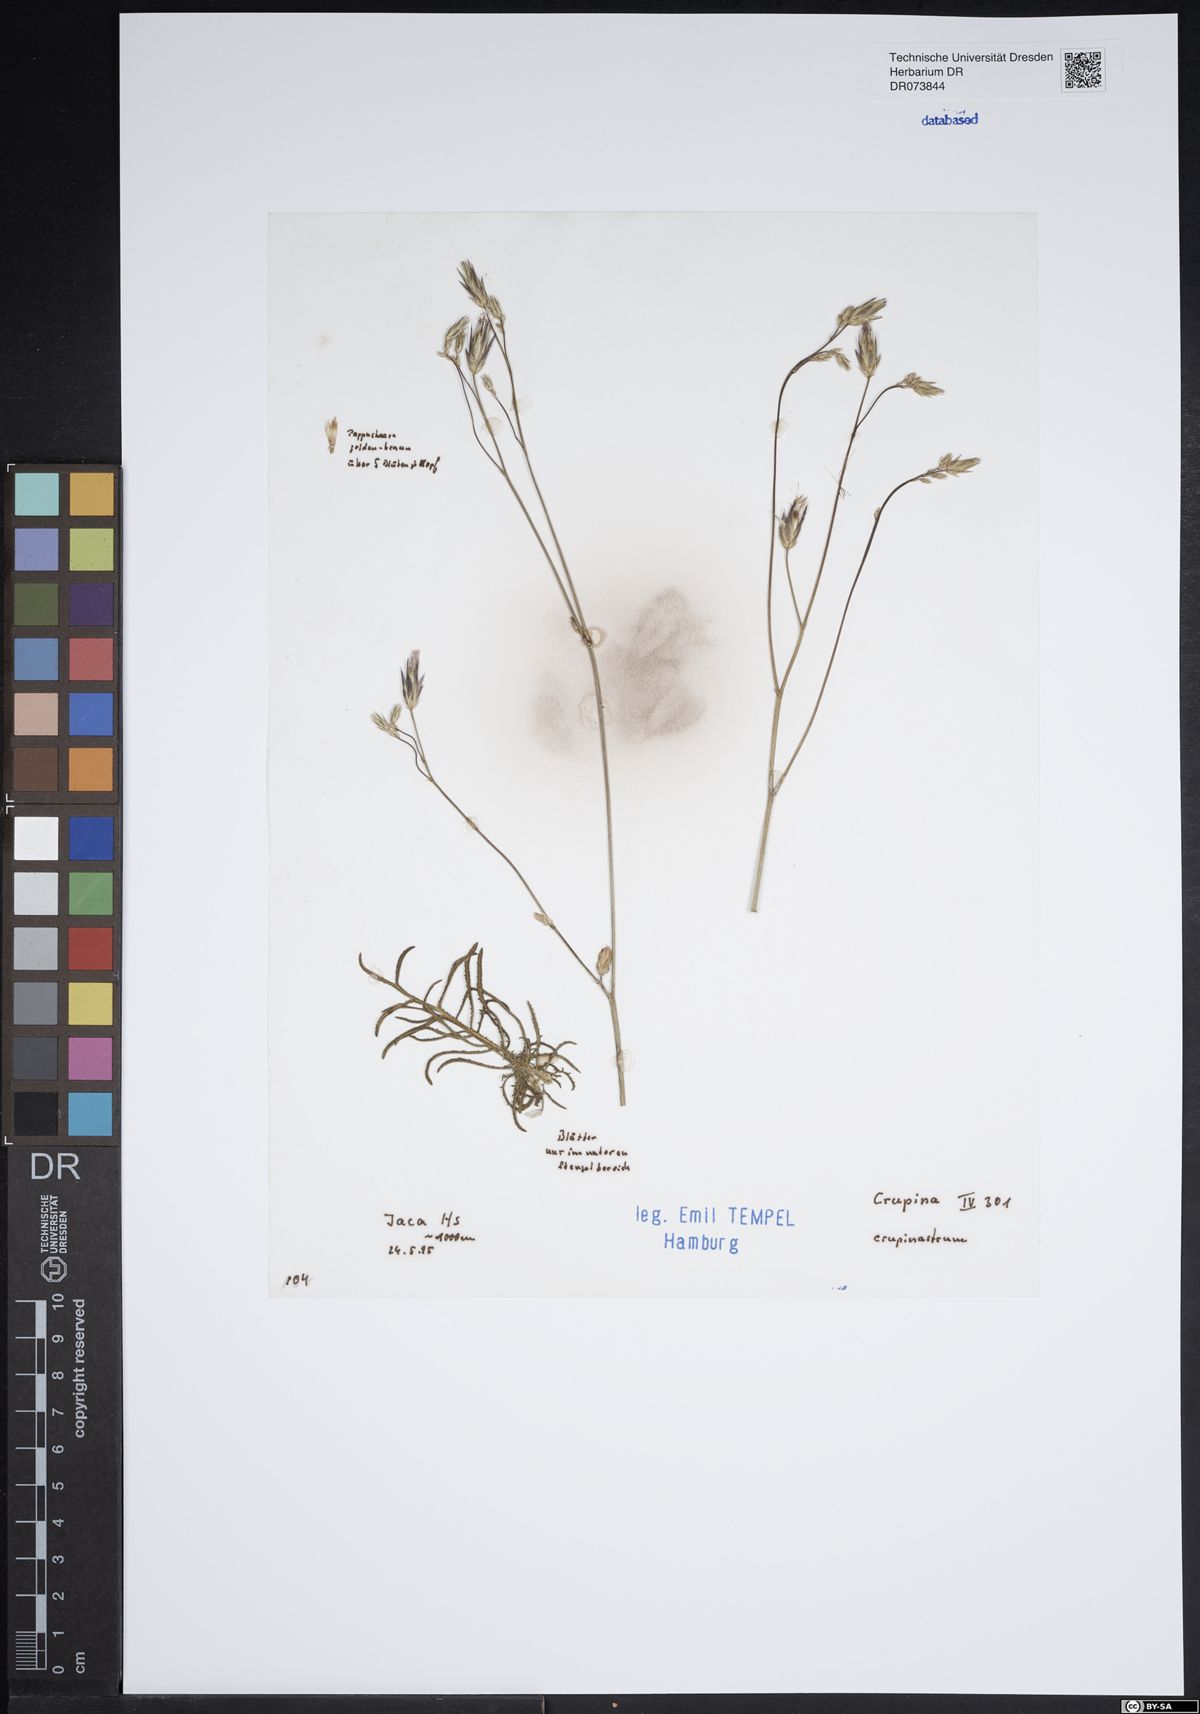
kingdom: Plantae
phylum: Tracheophyta
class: Magnoliopsida
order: Asterales
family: Asteraceae
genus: Crupina
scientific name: Crupina crupinastrum
